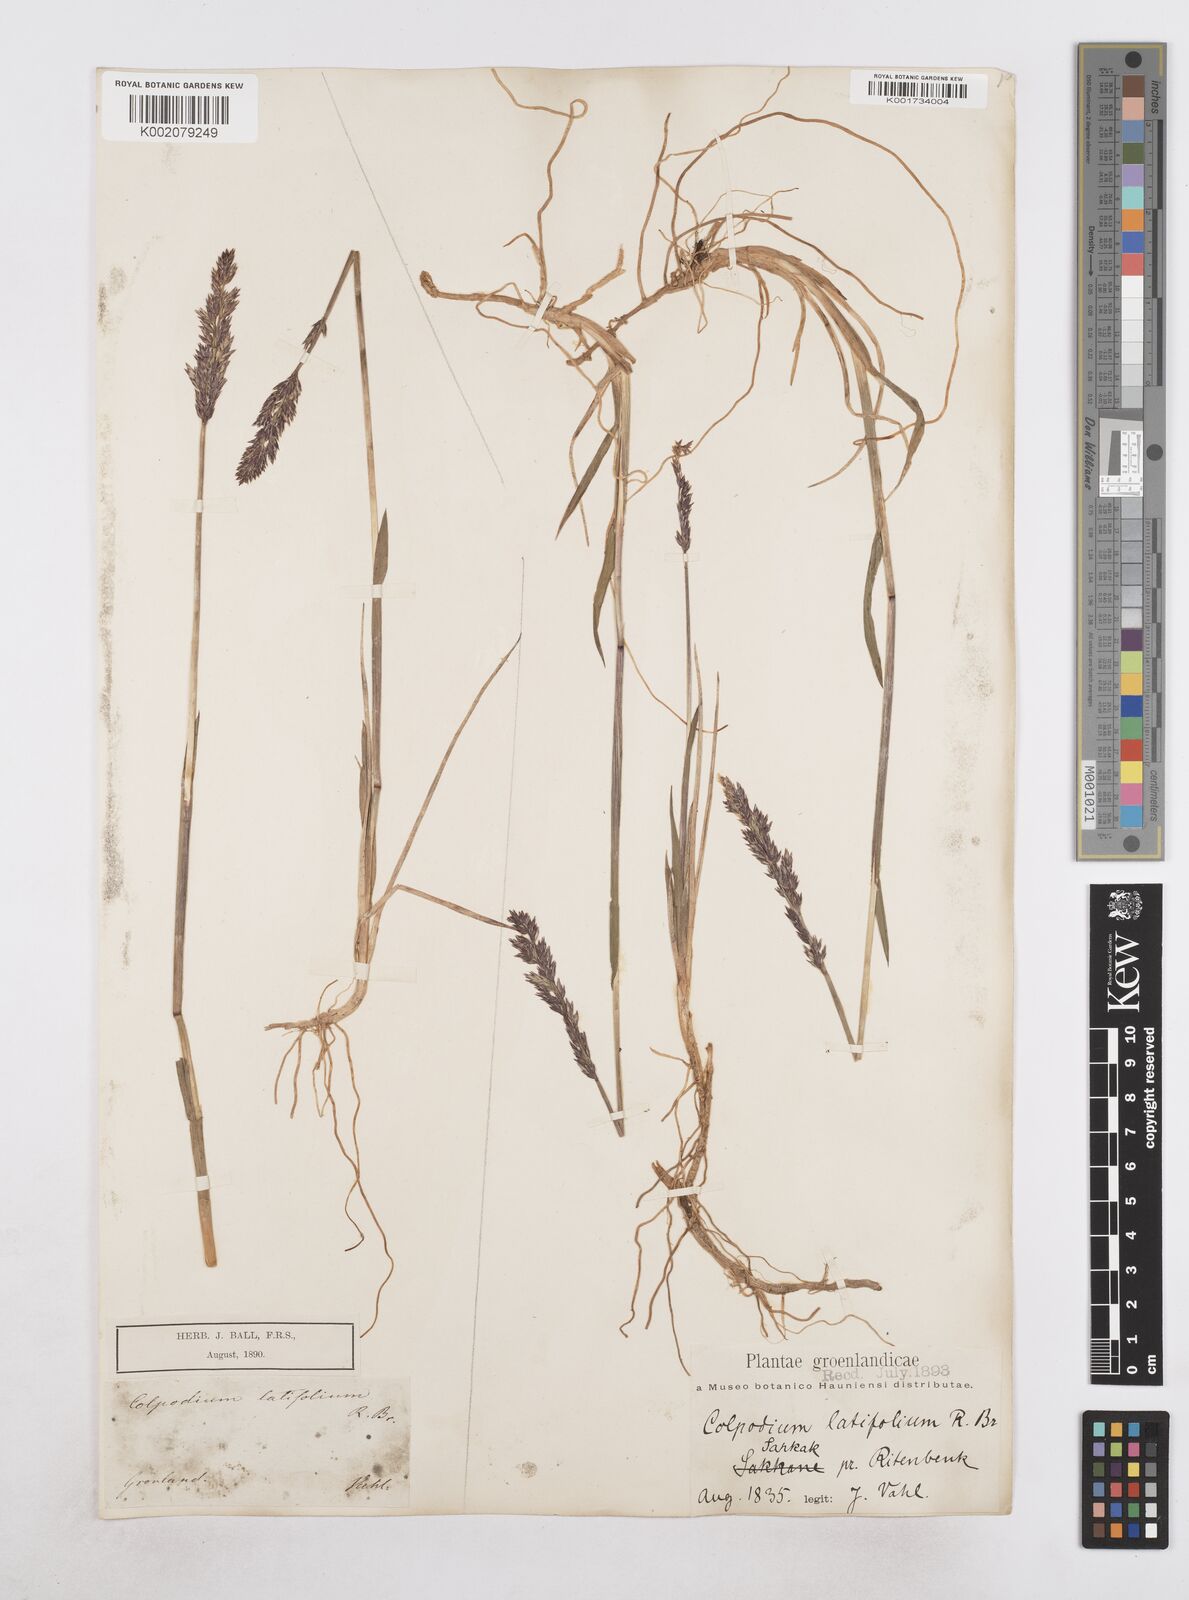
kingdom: Plantae
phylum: Tracheophyta
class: Liliopsida
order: Poales
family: Poaceae
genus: Arctagrostis
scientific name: Arctagrostis latifolia
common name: Arctic grass
